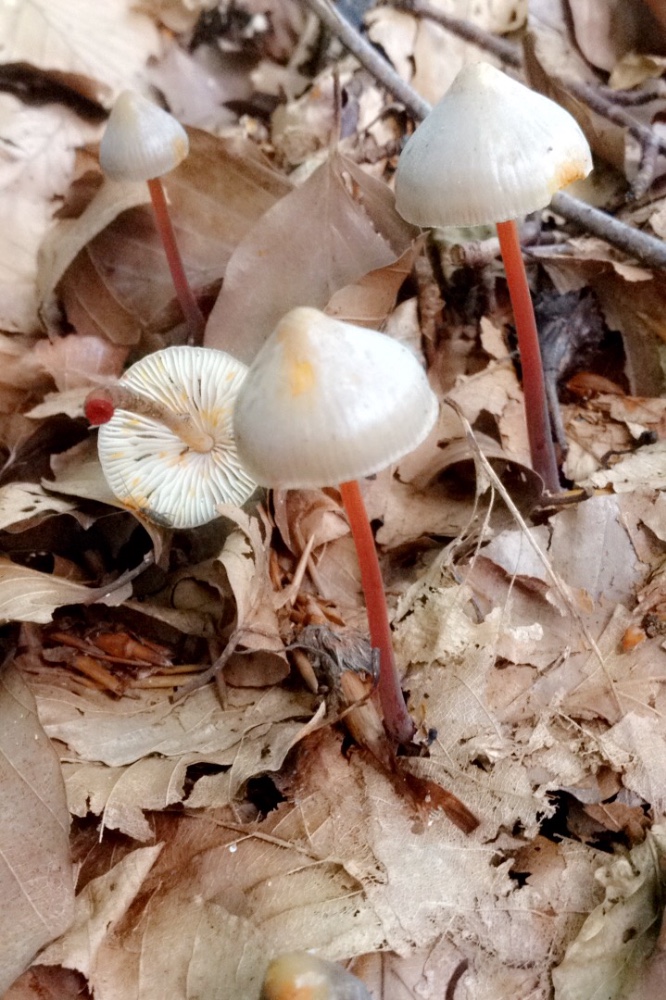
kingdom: Fungi
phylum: Basidiomycota
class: Agaricomycetes
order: Agaricales
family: Mycenaceae
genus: Mycena
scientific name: Mycena crocata
